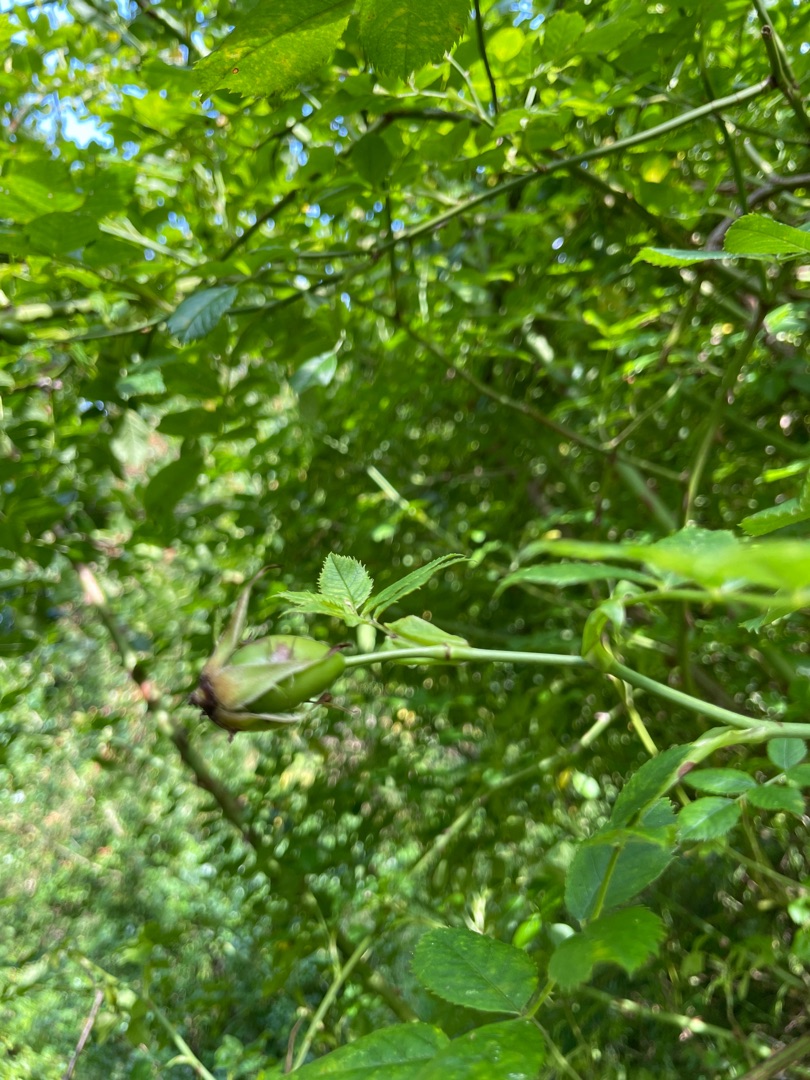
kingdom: Plantae
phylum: Tracheophyta
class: Magnoliopsida
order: Rosales
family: Rosaceae
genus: Rosa
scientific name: Rosa canina
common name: Glat hunde-rose
